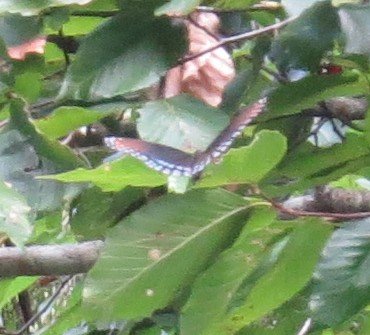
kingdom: Animalia
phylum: Arthropoda
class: Insecta
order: Lepidoptera
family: Nymphalidae
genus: Limenitis
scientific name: Limenitis astyanax
